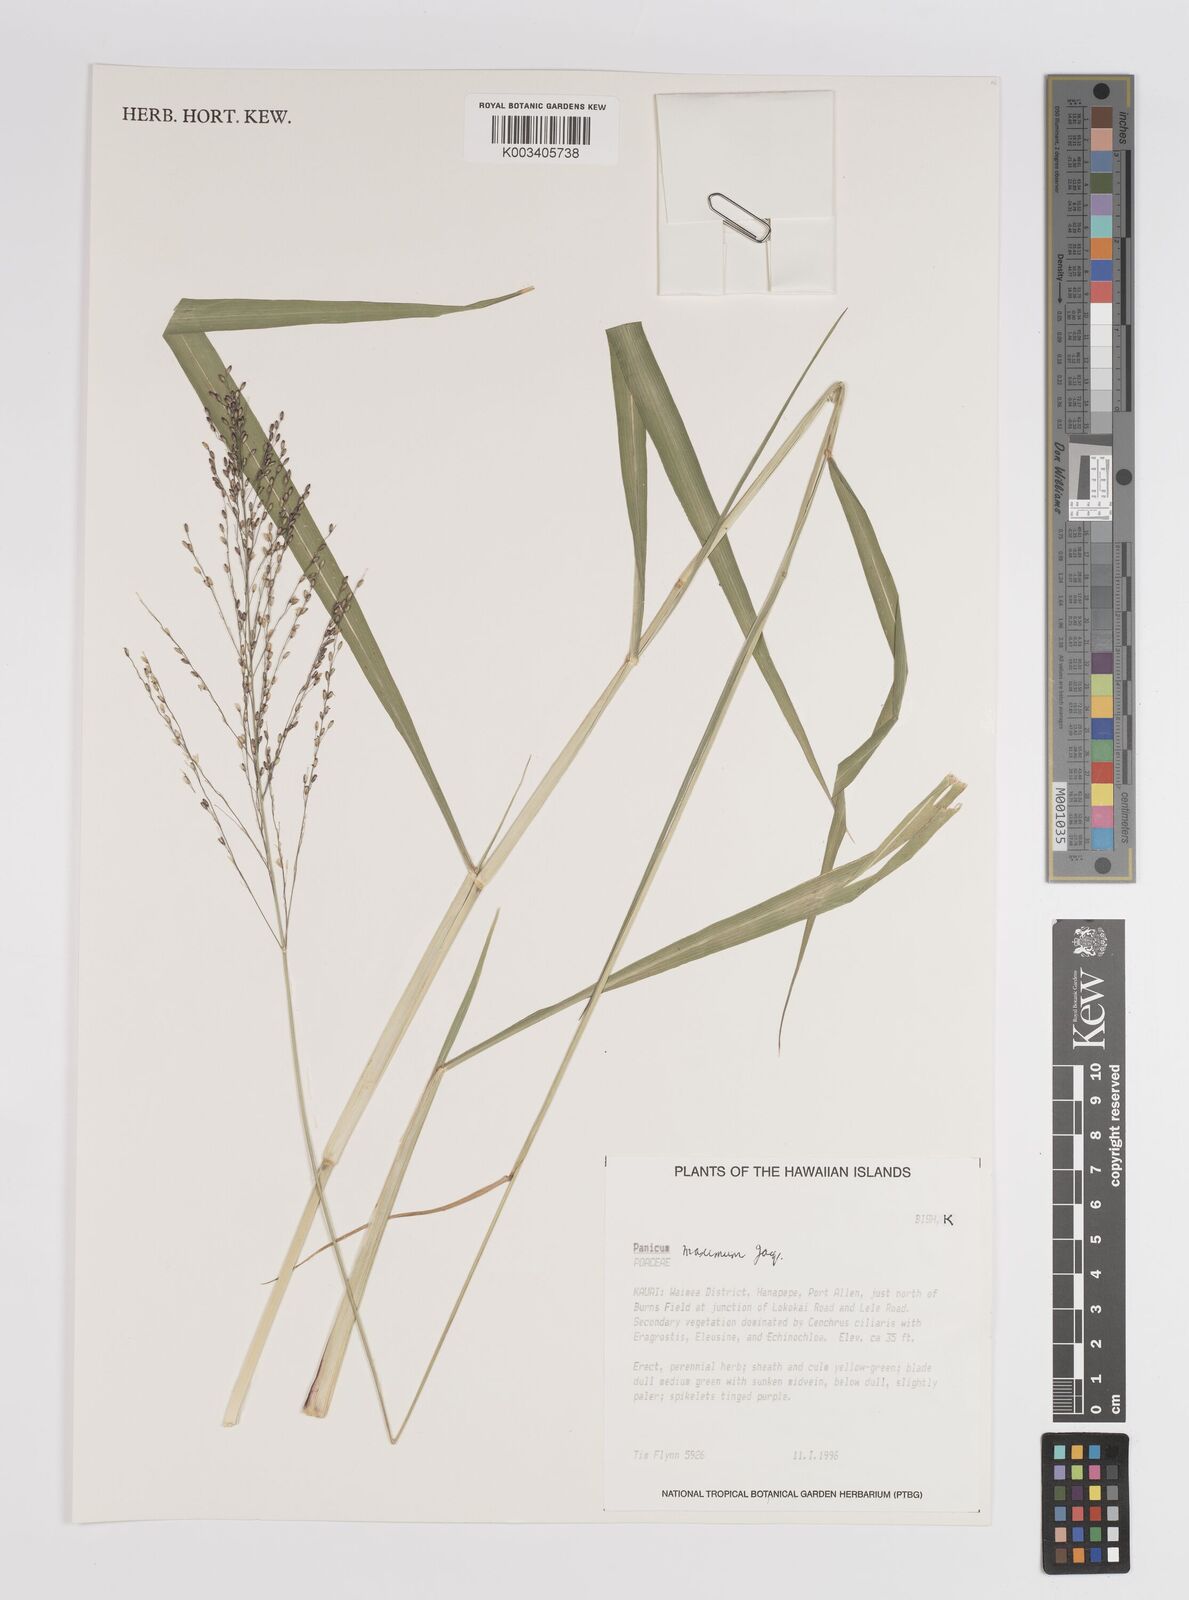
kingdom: Plantae
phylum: Tracheophyta
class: Liliopsida
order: Poales
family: Poaceae
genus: Megathyrsus
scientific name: Megathyrsus maximus
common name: Guineagrass
